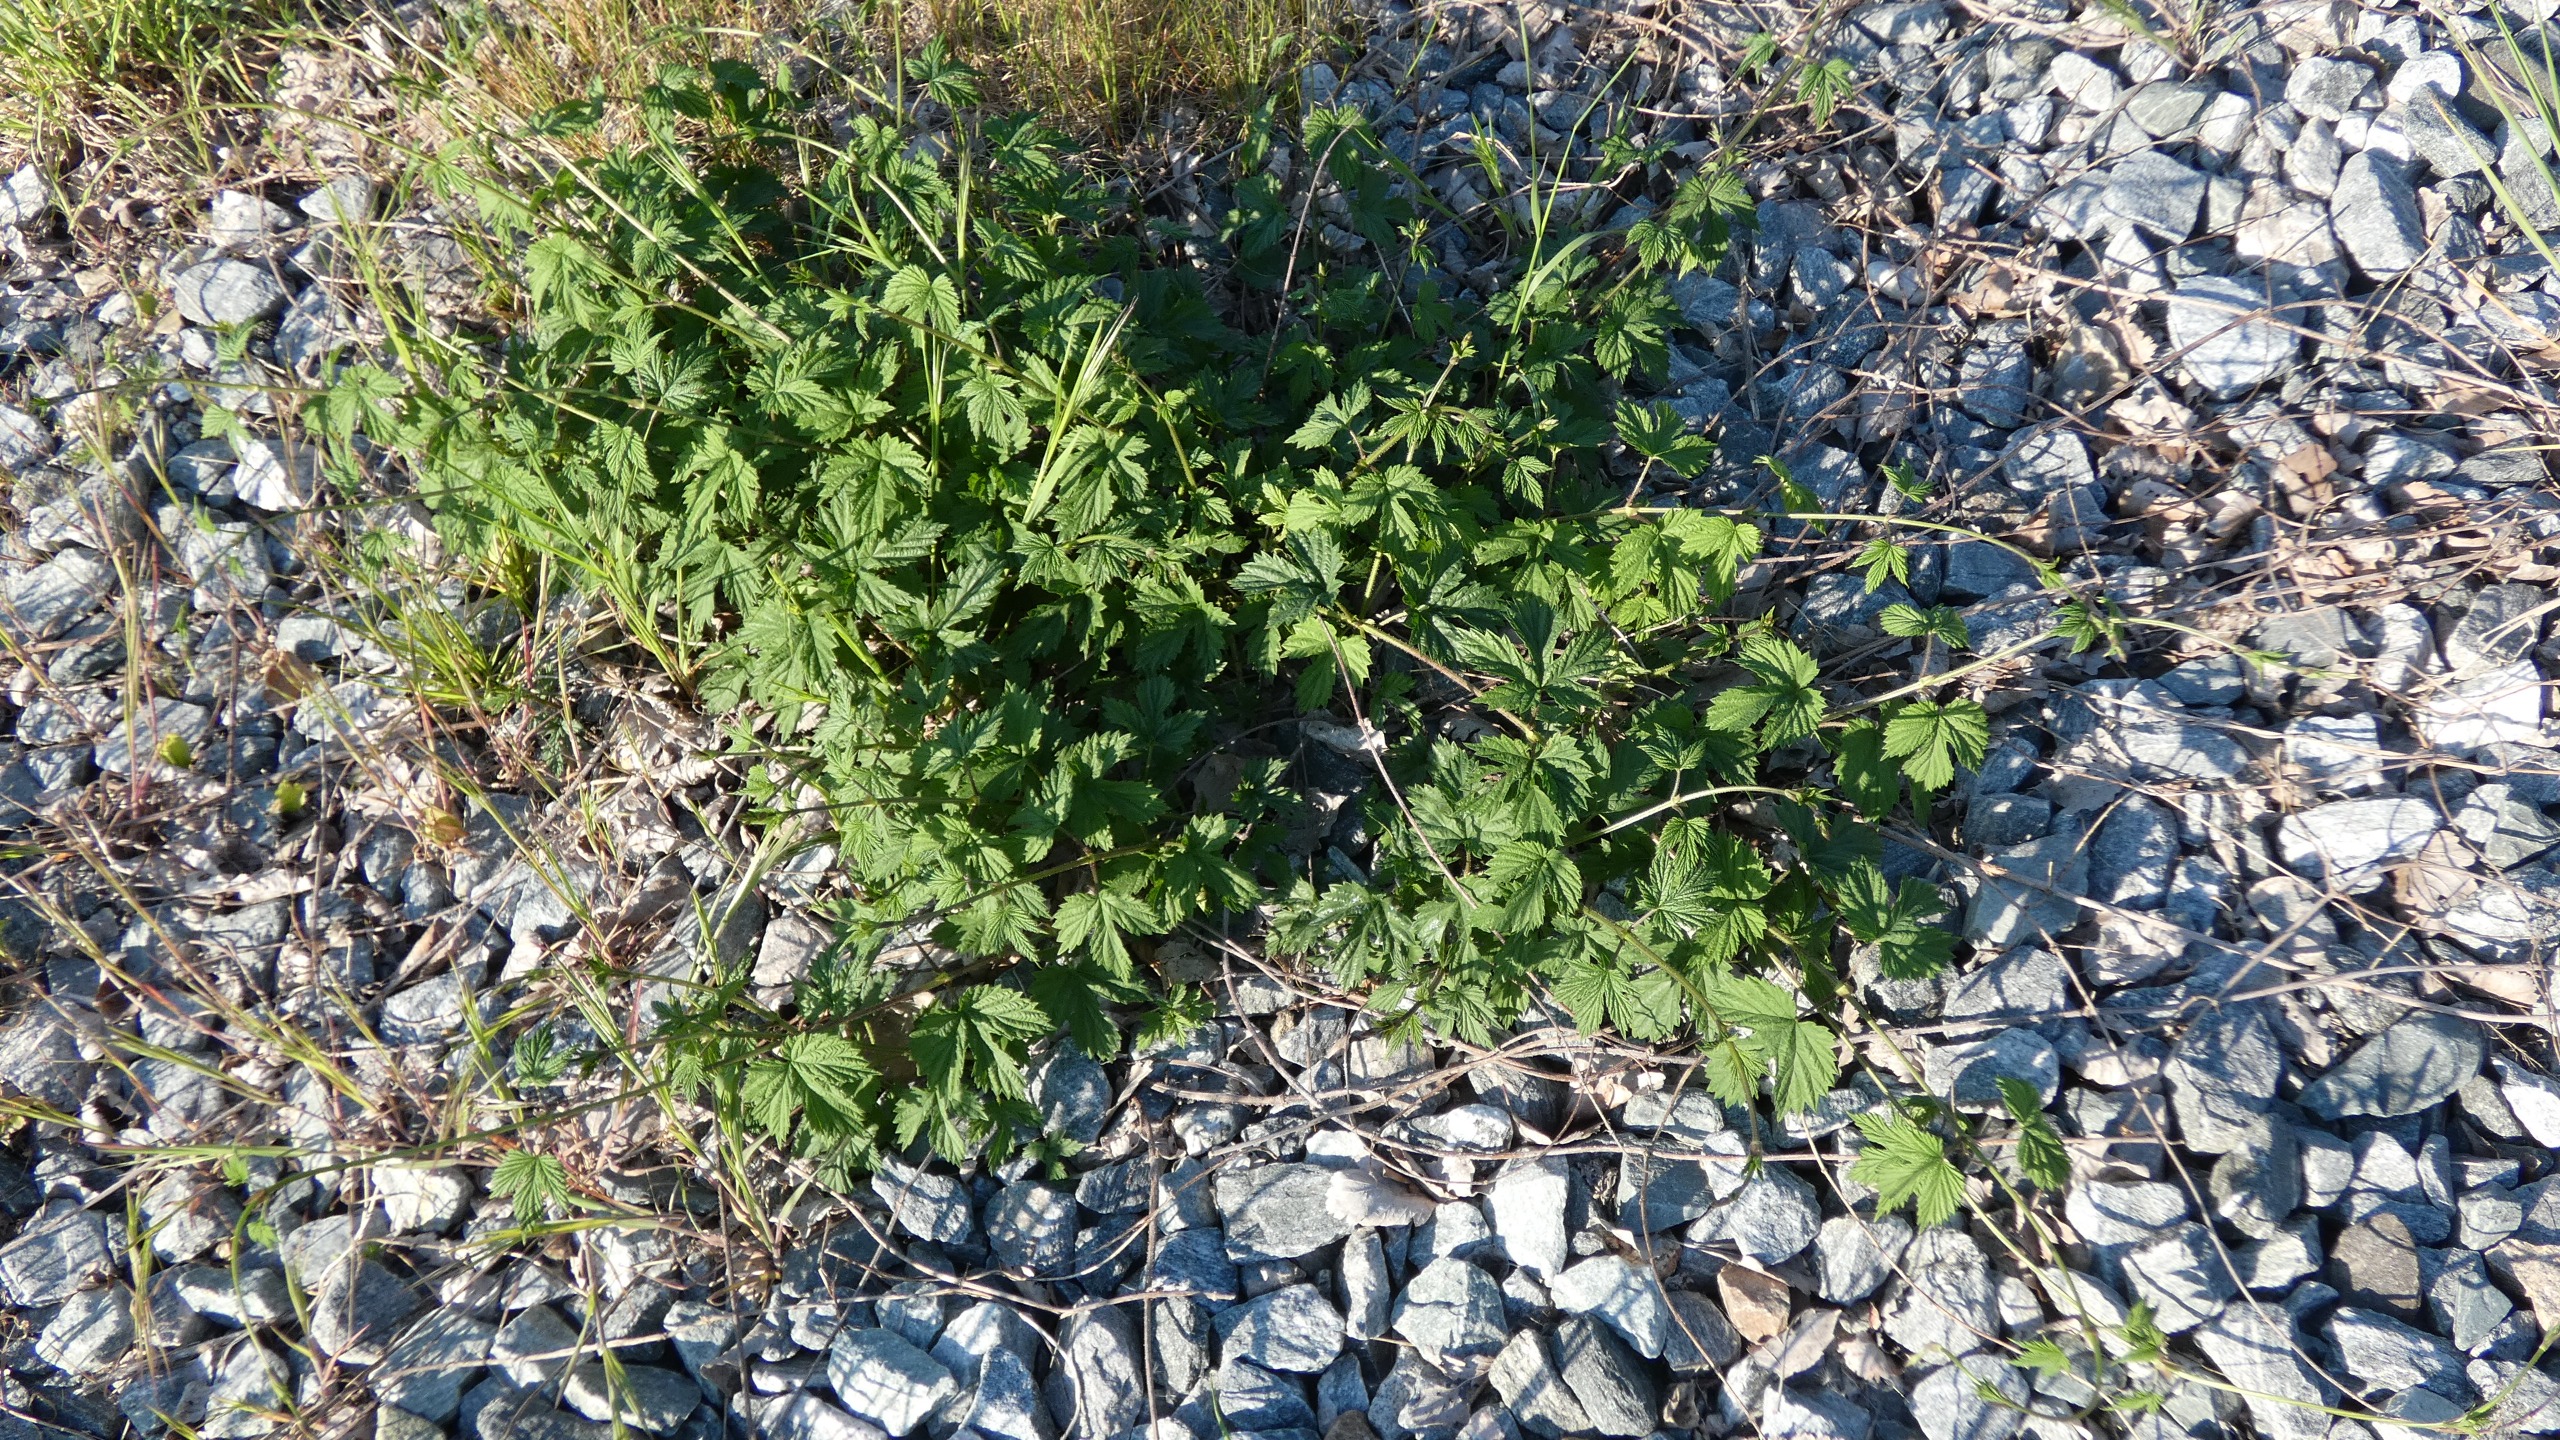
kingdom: Plantae
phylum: Tracheophyta
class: Magnoliopsida
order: Rosales
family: Cannabaceae
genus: Humulus
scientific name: Humulus lupulus
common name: Humle
